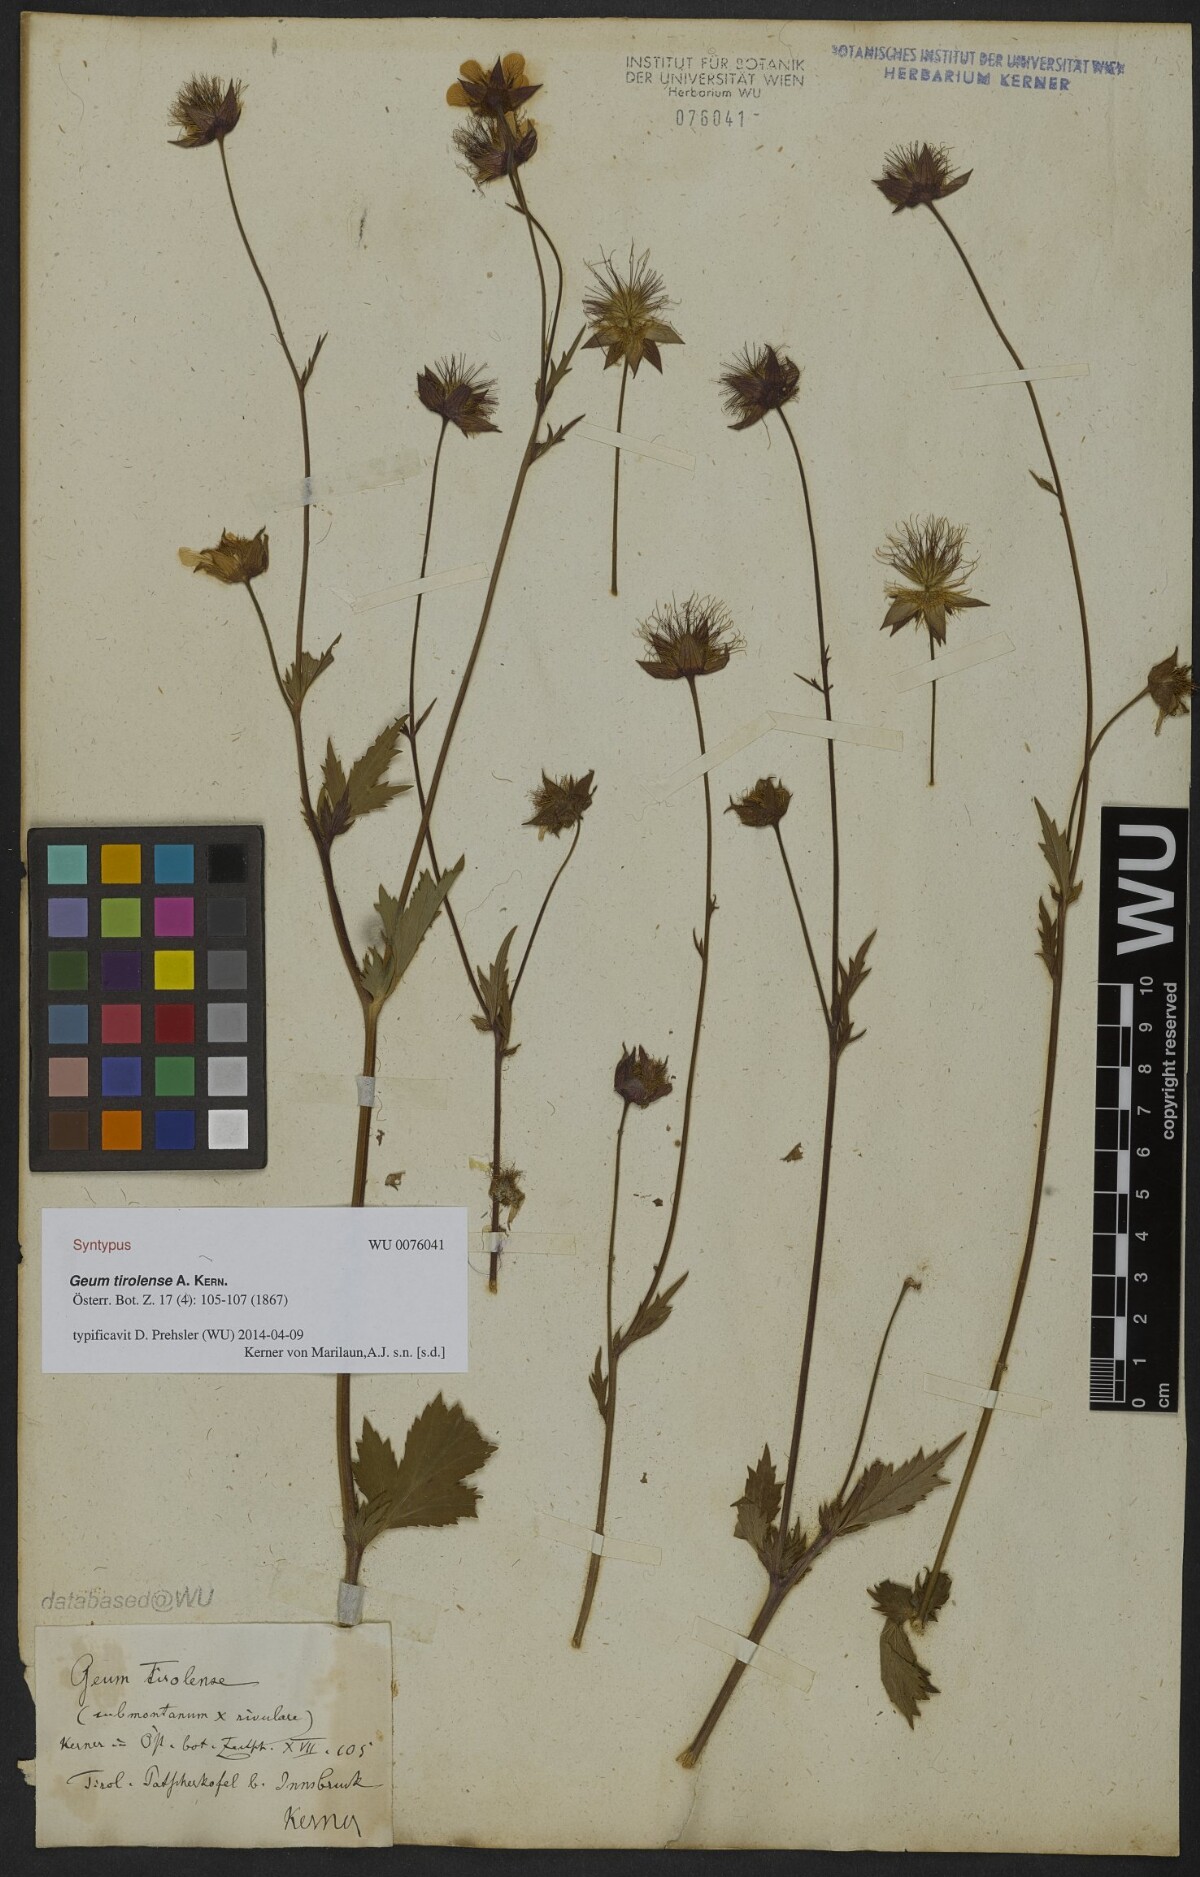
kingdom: Plantae
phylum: Tracheophyta
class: Magnoliopsida
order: Rosales
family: Rosaceae
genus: Geum
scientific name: Geum sudeticum
